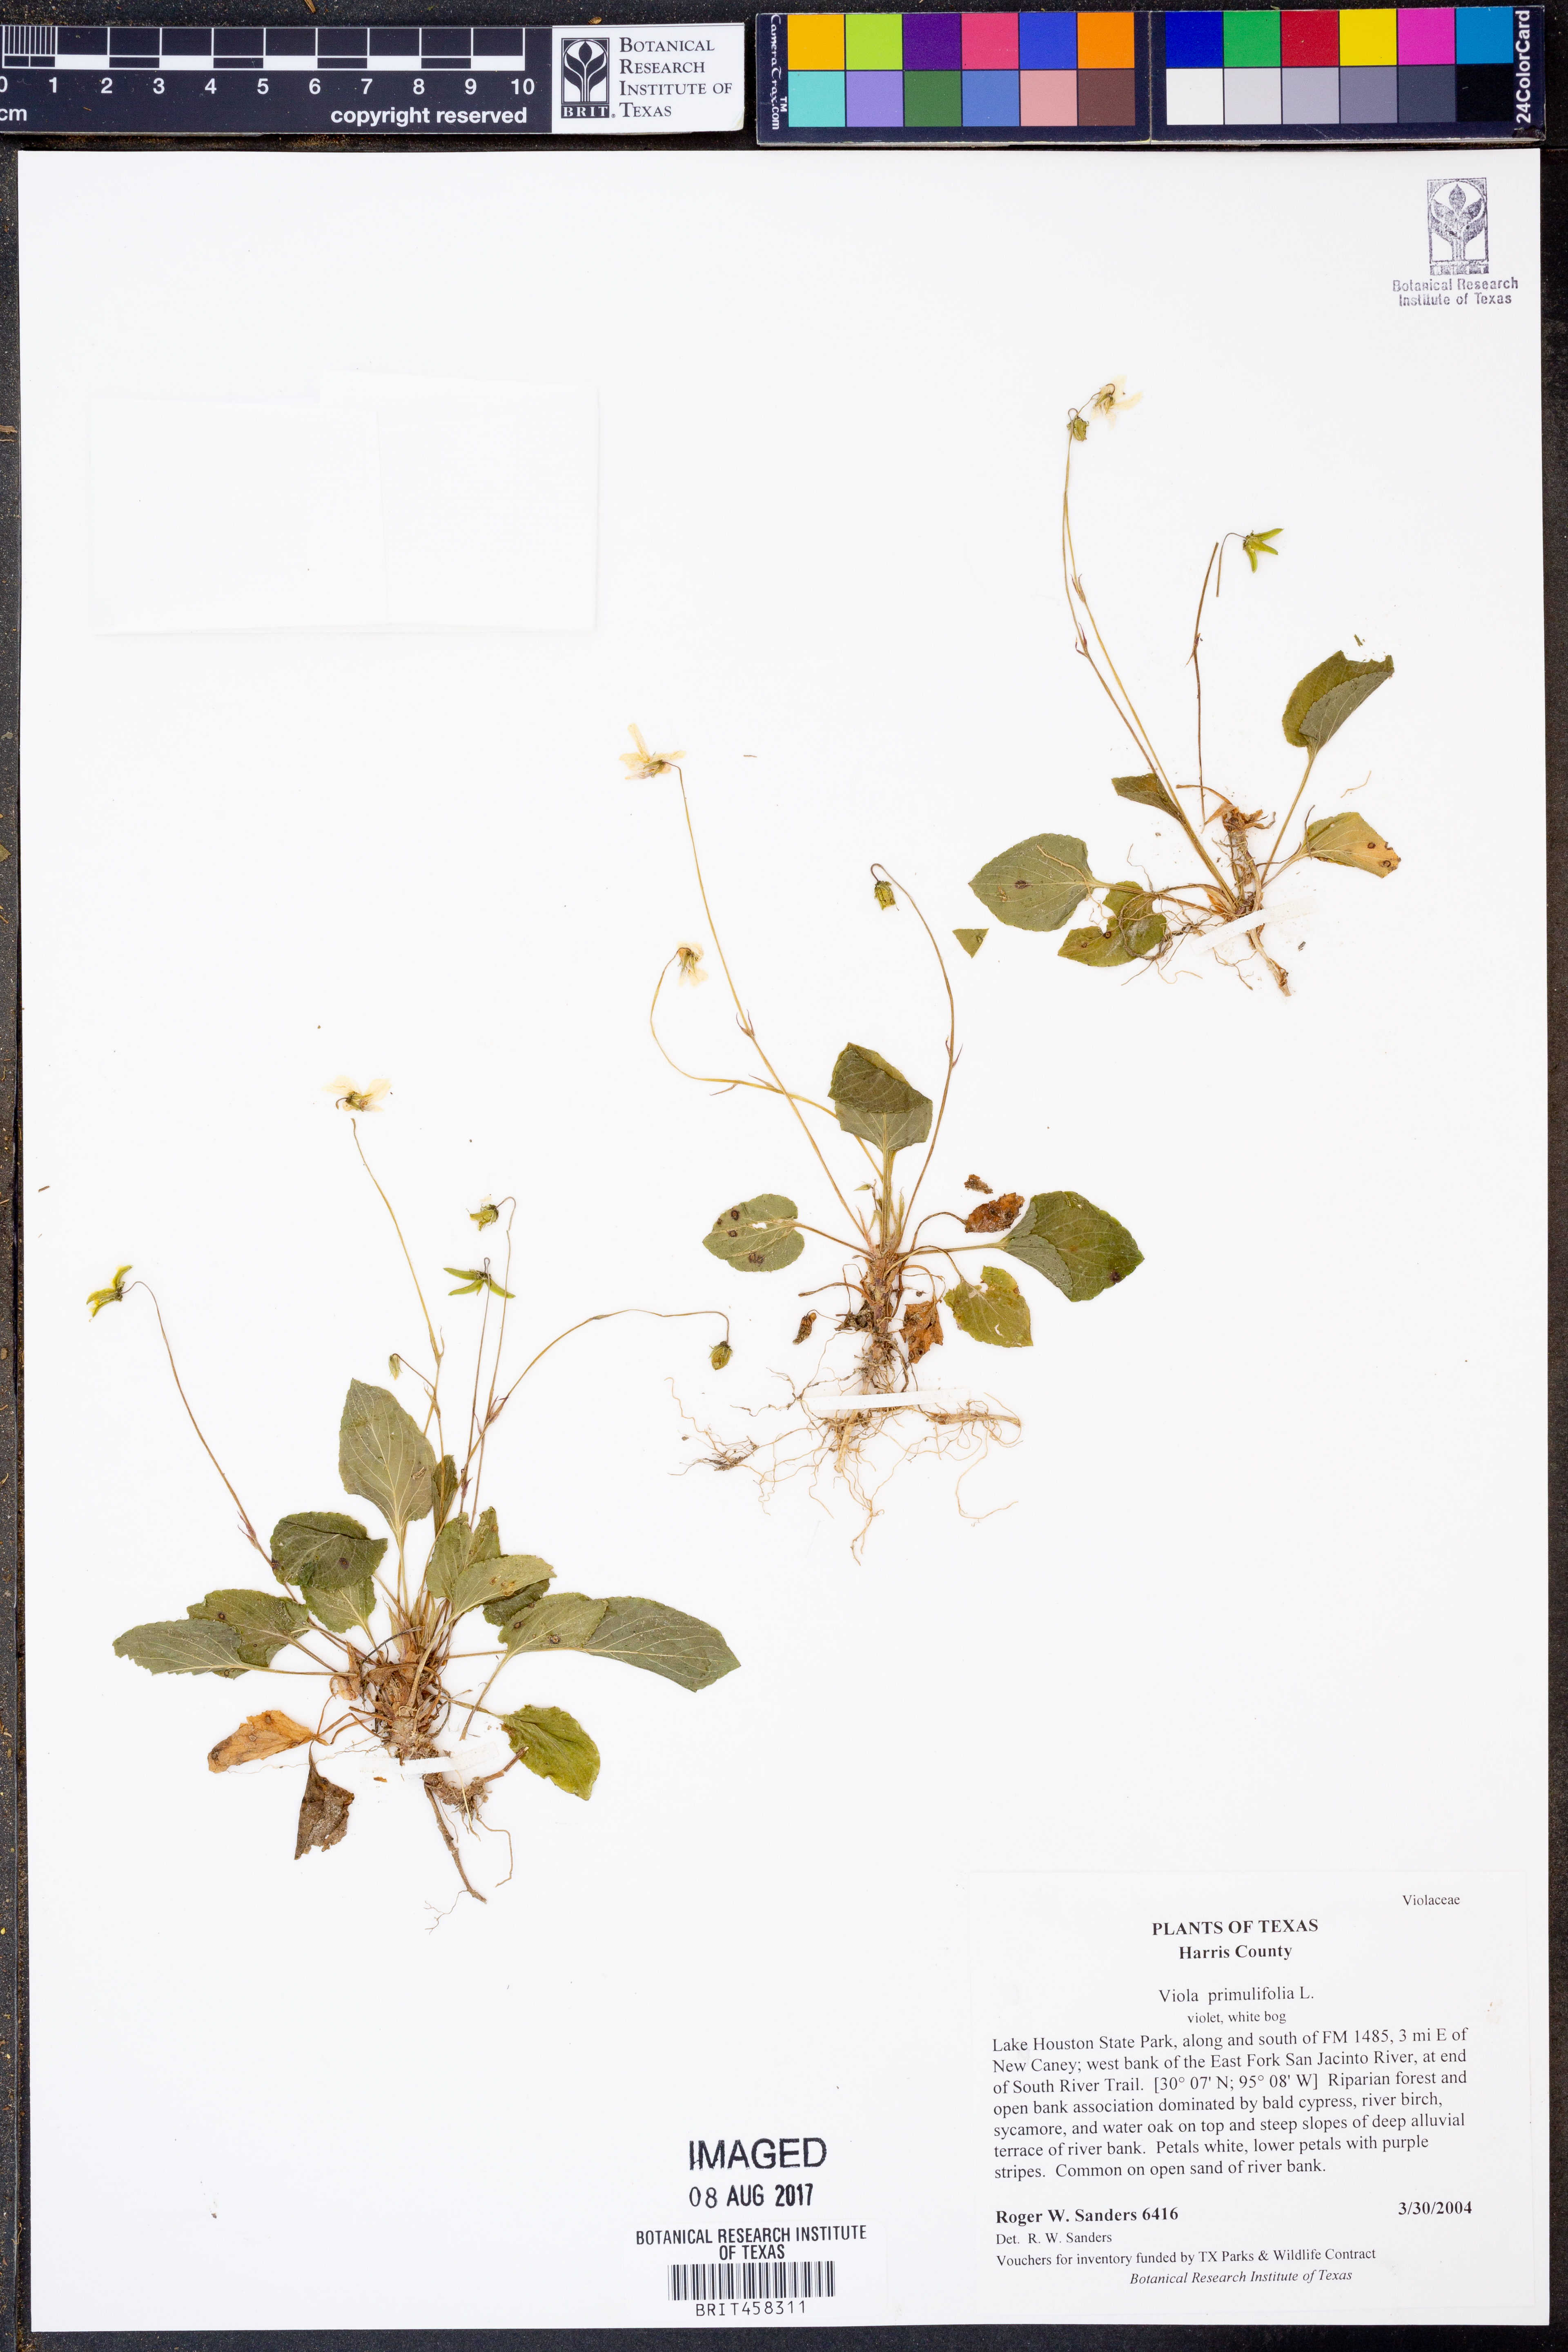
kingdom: Plantae
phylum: Tracheophyta
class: Magnoliopsida
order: Malpighiales
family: Violaceae
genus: Viola
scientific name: Viola primulifolia
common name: Primrose-leaf violet
